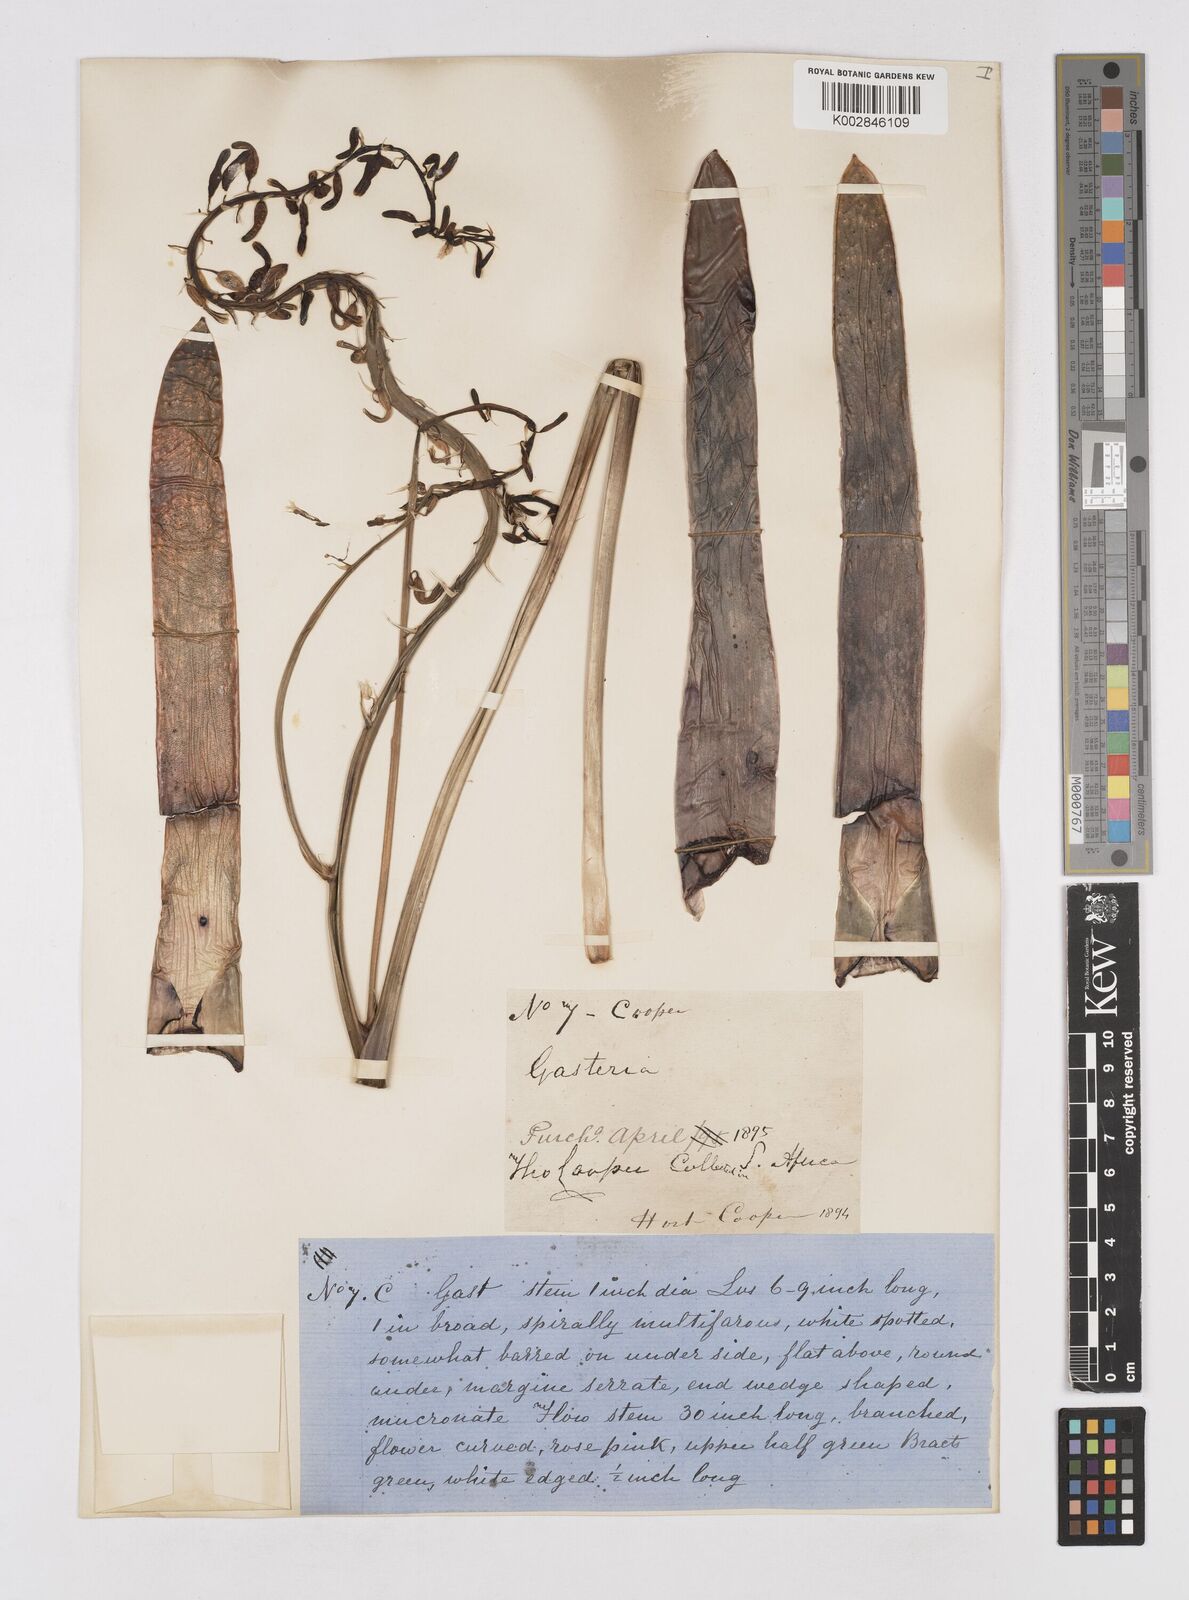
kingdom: Plantae
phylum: Tracheophyta
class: Liliopsida
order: Asparagales
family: Asphodelaceae
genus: Gasteria
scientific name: Gasteria
